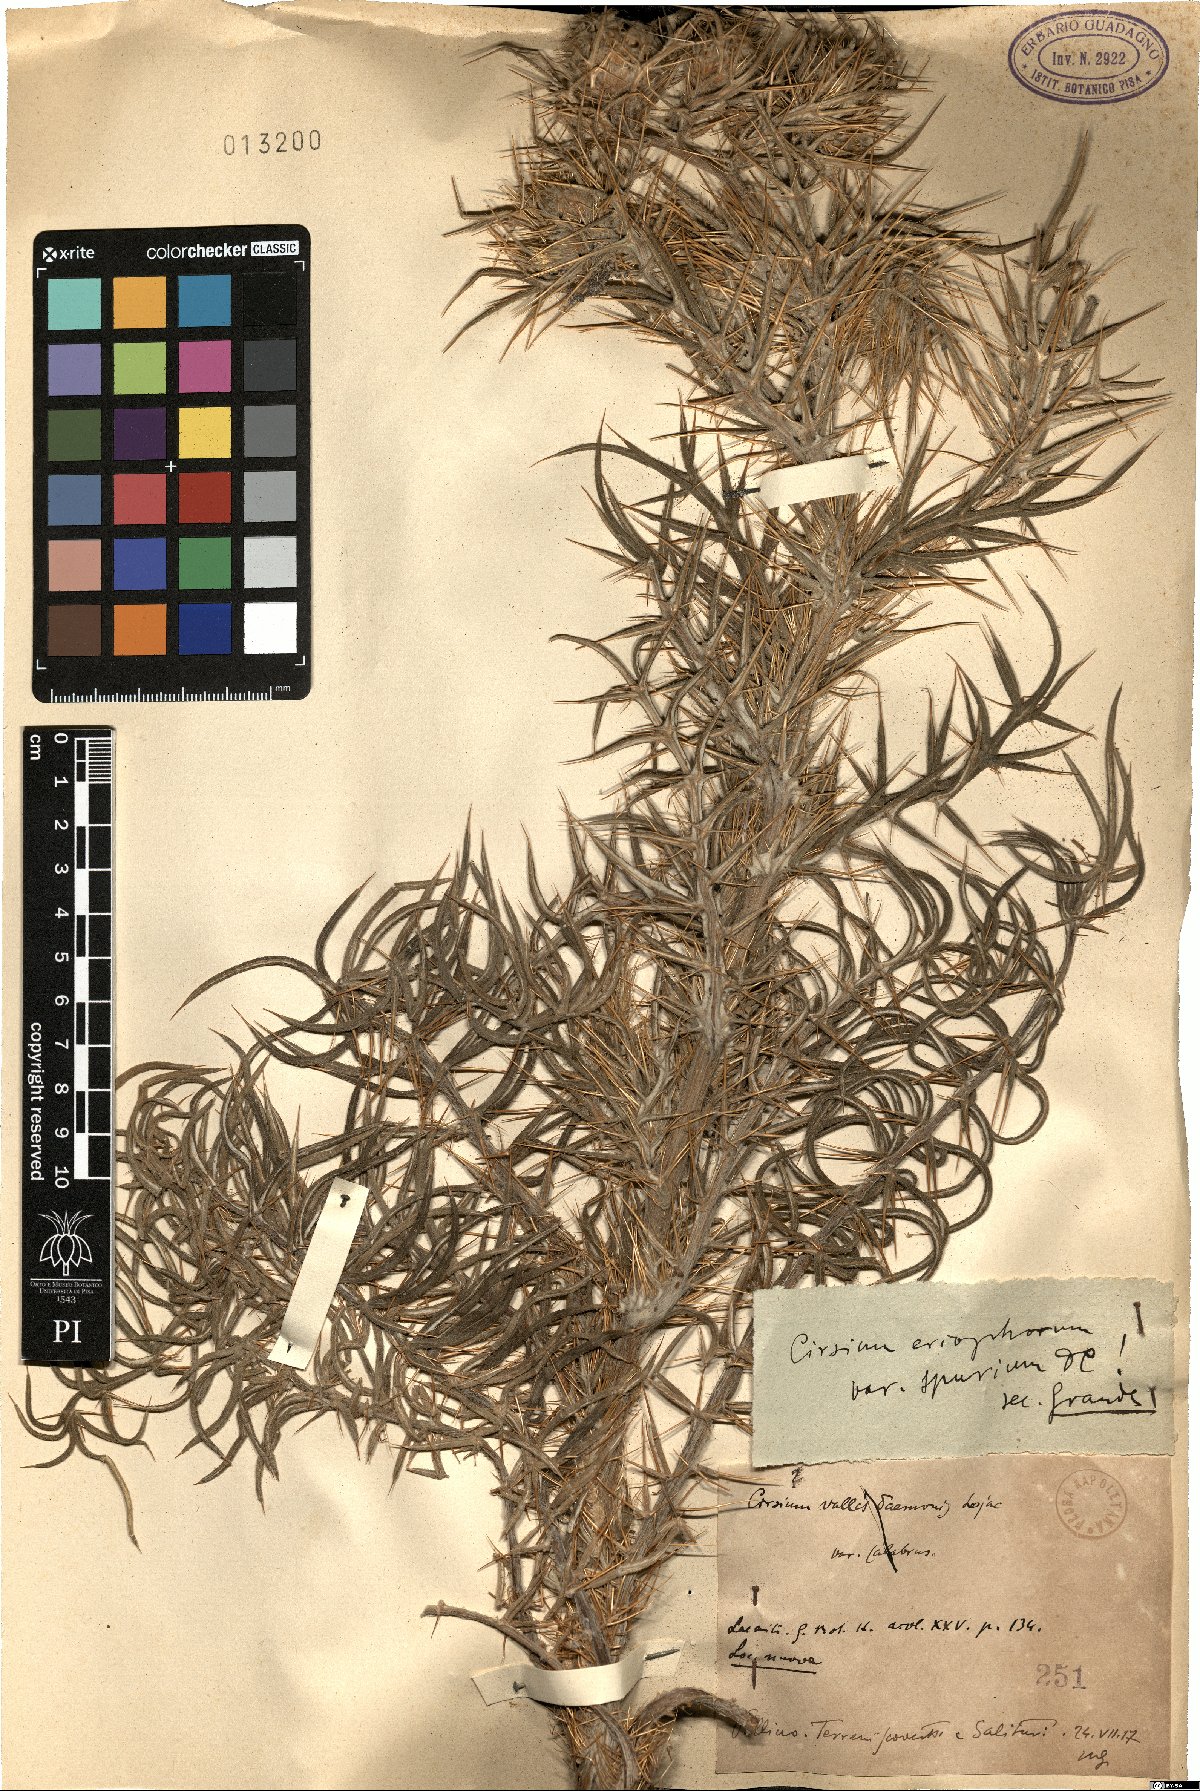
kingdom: Plantae
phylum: Tracheophyta
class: Magnoliopsida
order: Asterales
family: Asteraceae
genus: Lophiolepis
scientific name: Lophiolepis tenoreana
